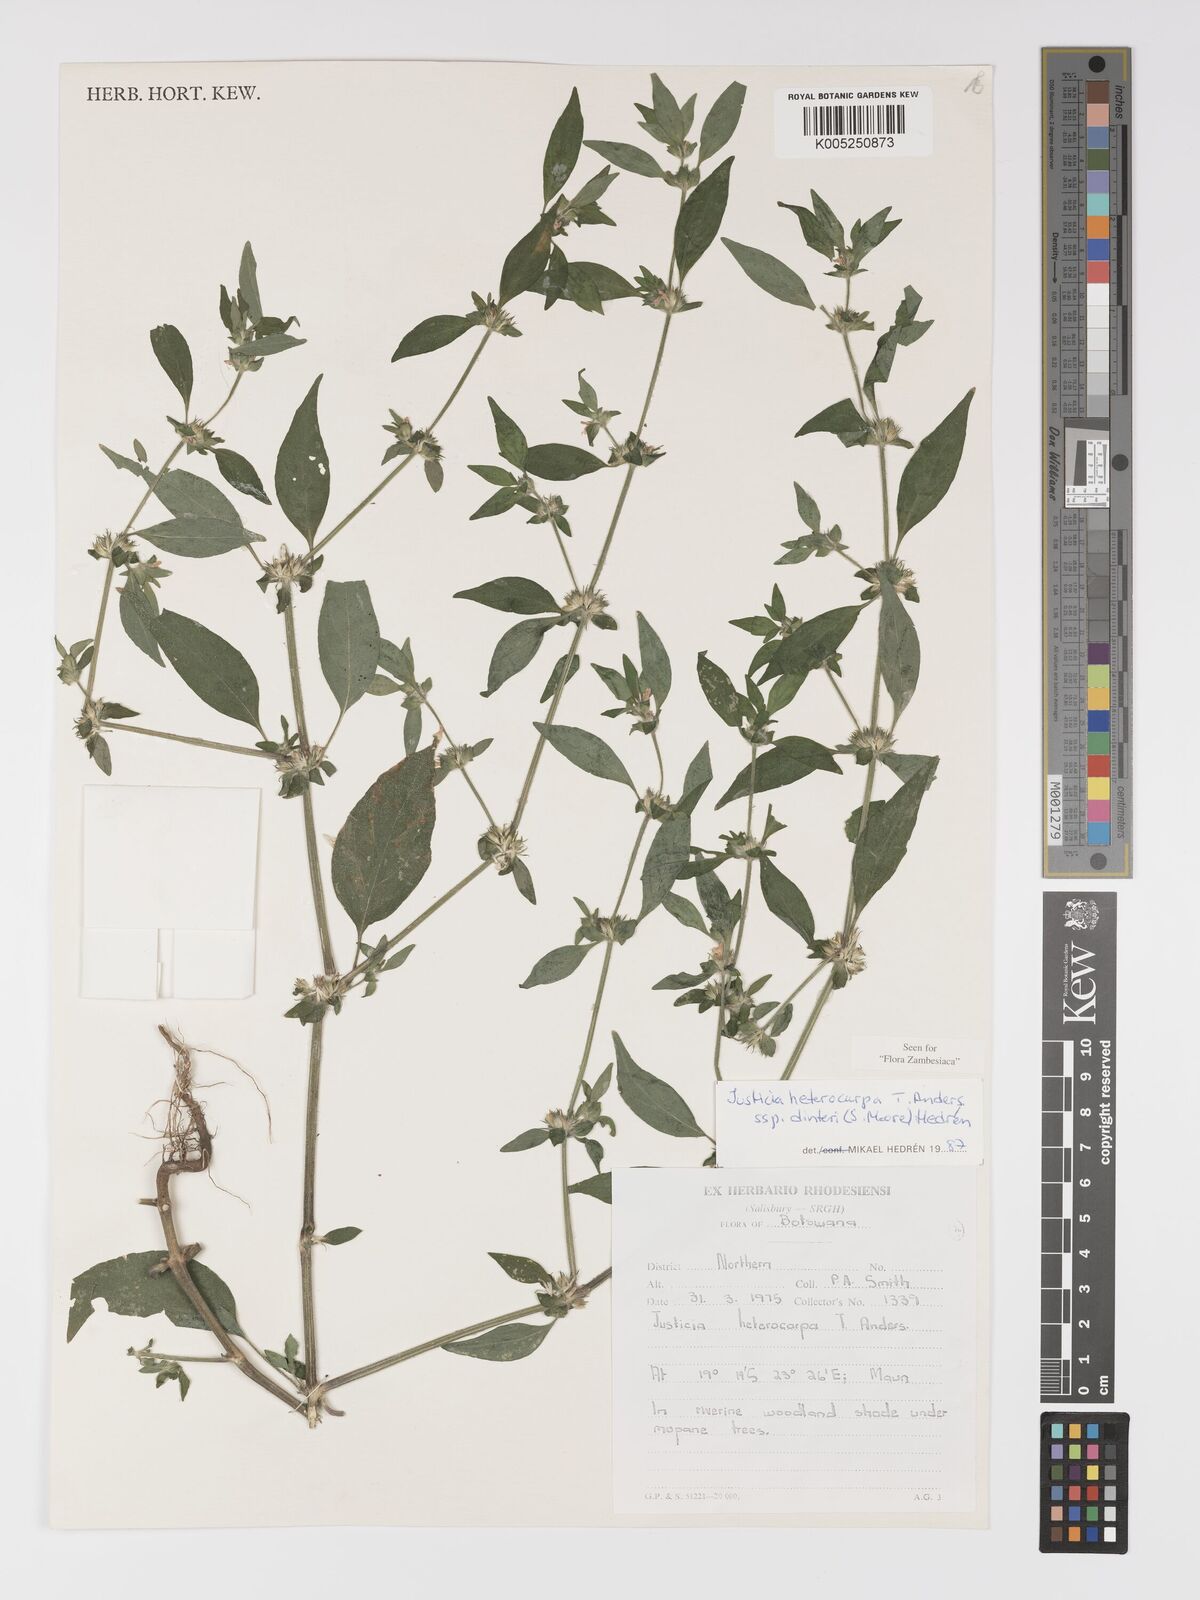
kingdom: Plantae
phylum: Tracheophyta
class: Magnoliopsida
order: Lamiales
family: Acanthaceae
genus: Justicia
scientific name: Justicia heterocarpa
